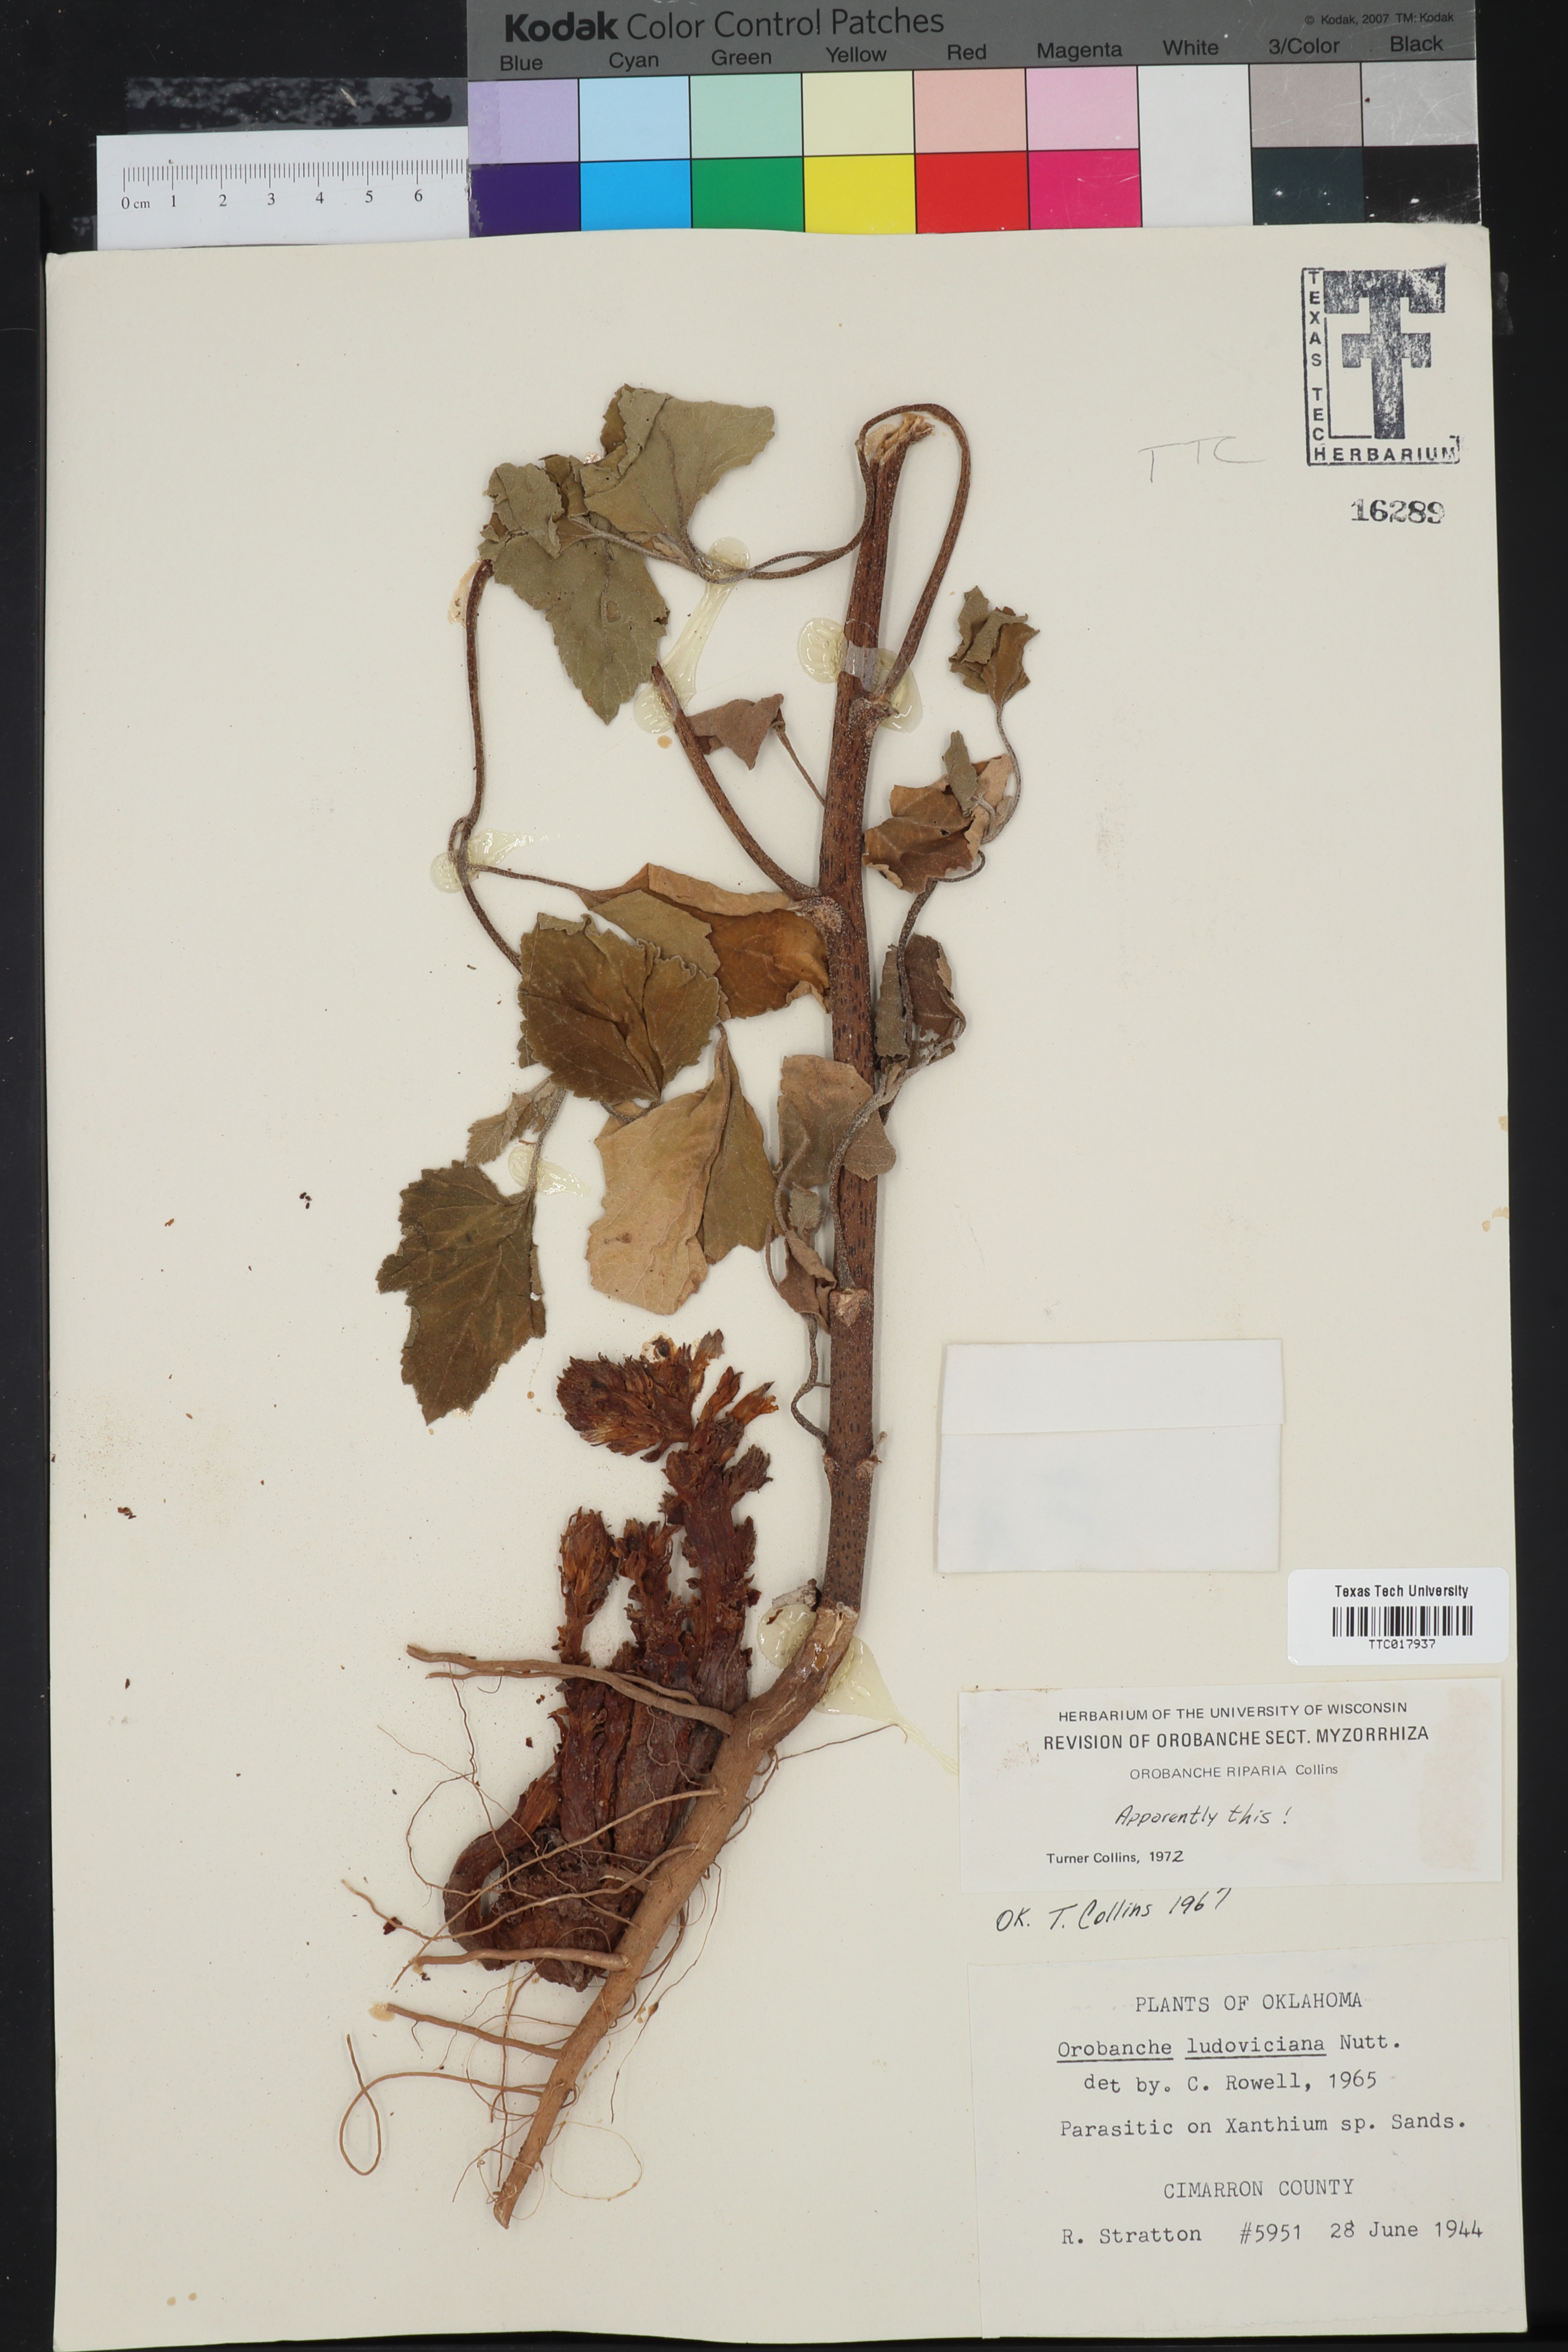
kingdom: Plantae
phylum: Tracheophyta
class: Magnoliopsida
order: Lamiales
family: Orobanchaceae
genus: Aphyllon
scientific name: Aphyllon riparium
